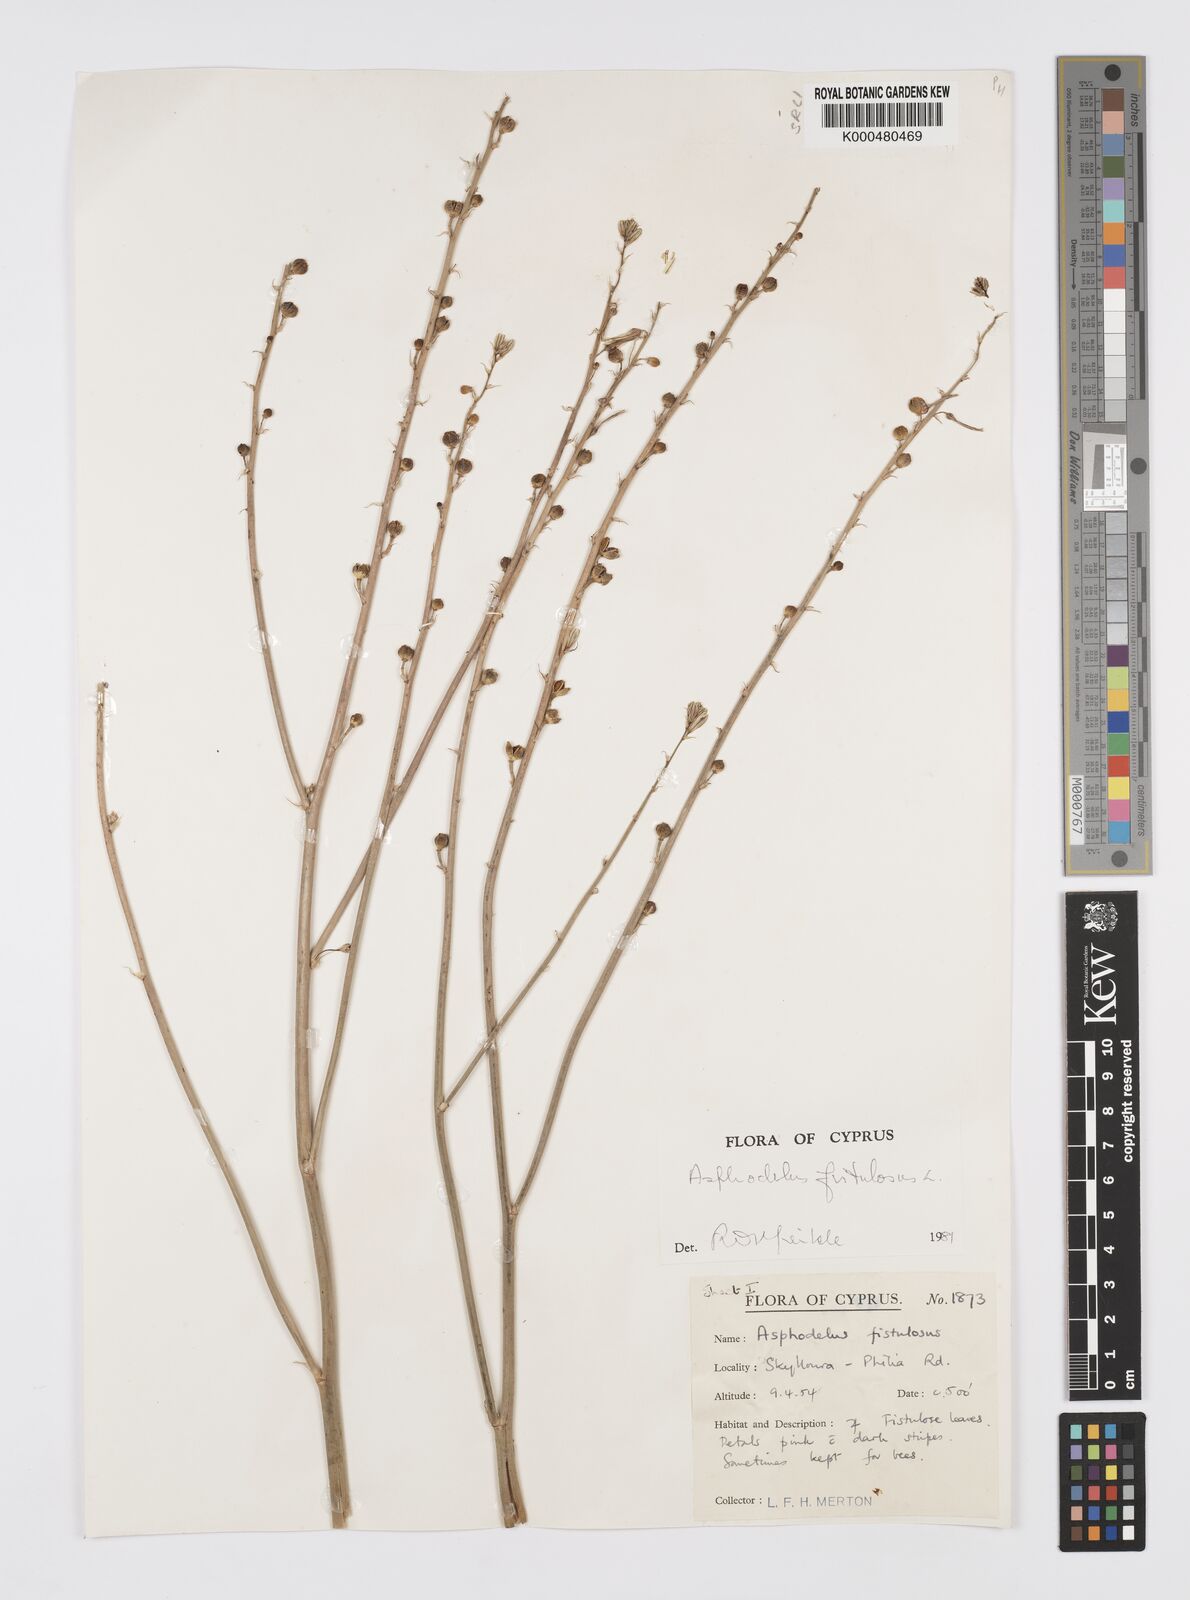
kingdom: Plantae
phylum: Tracheophyta
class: Liliopsida
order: Asparagales
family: Asphodelaceae
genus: Asphodelus
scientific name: Asphodelus fistulosus
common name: Onionweed
